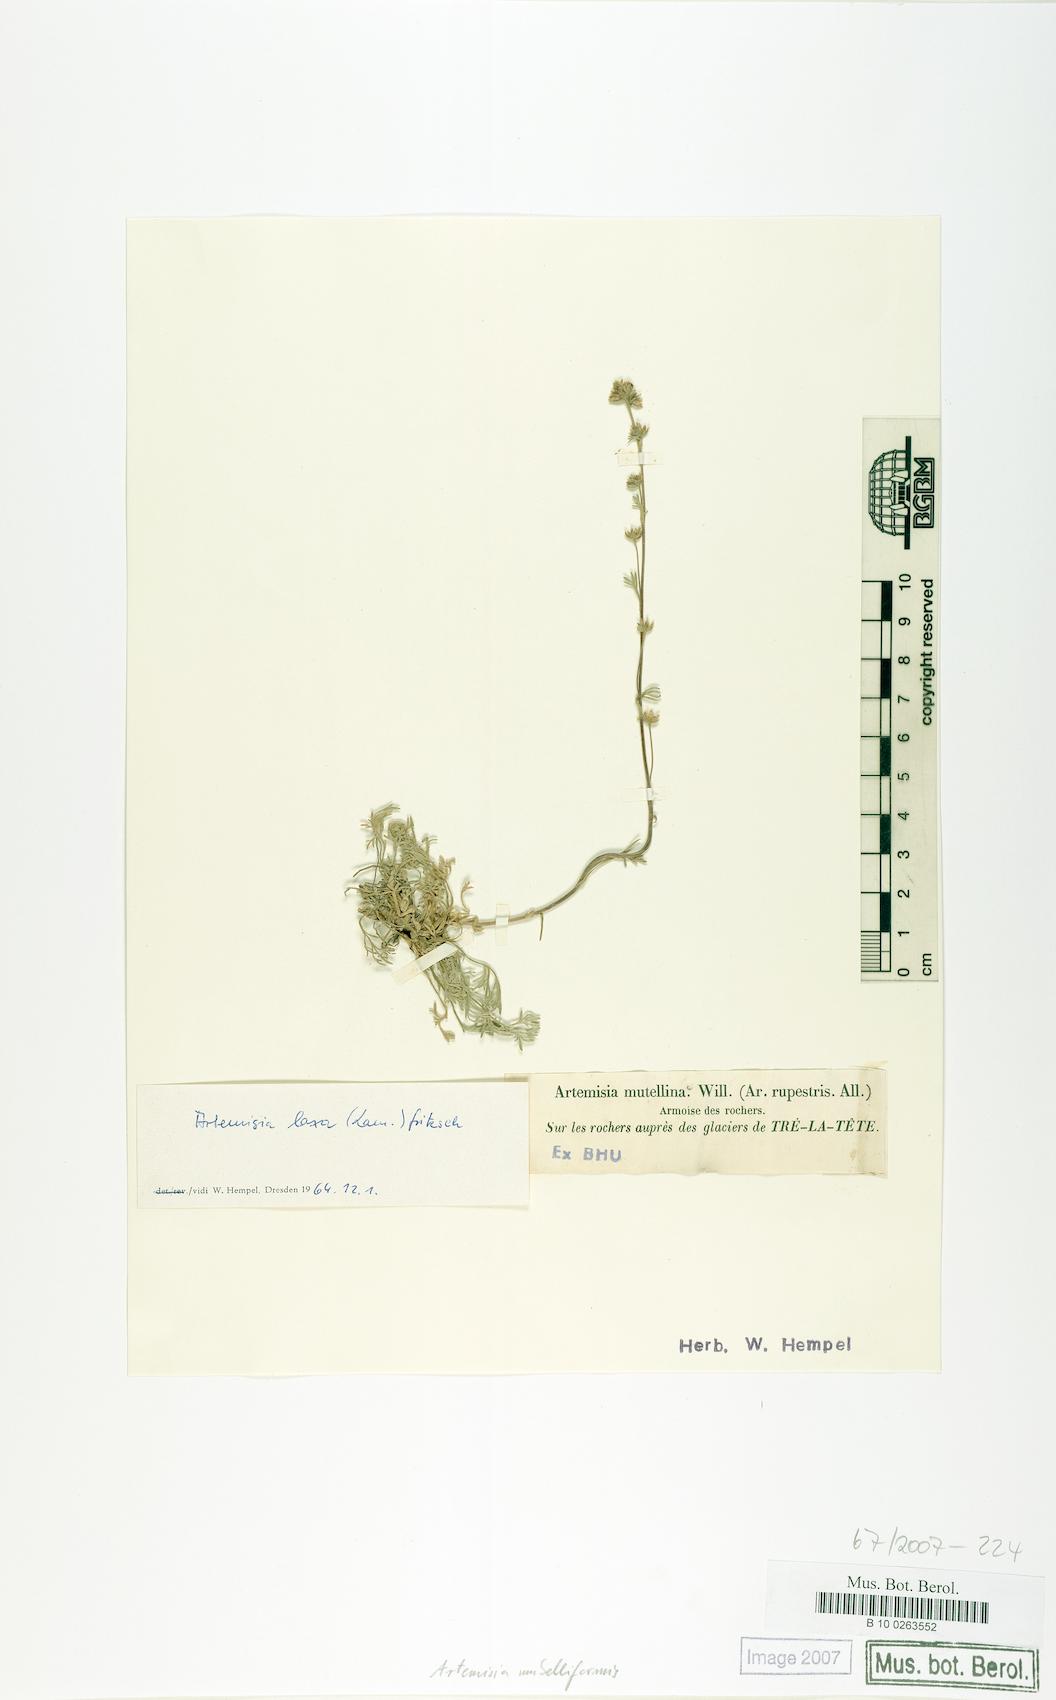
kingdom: Plantae
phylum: Tracheophyta
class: Magnoliopsida
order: Asterales
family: Asteraceae
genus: Artemisia
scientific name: Artemisia umbelliformis
